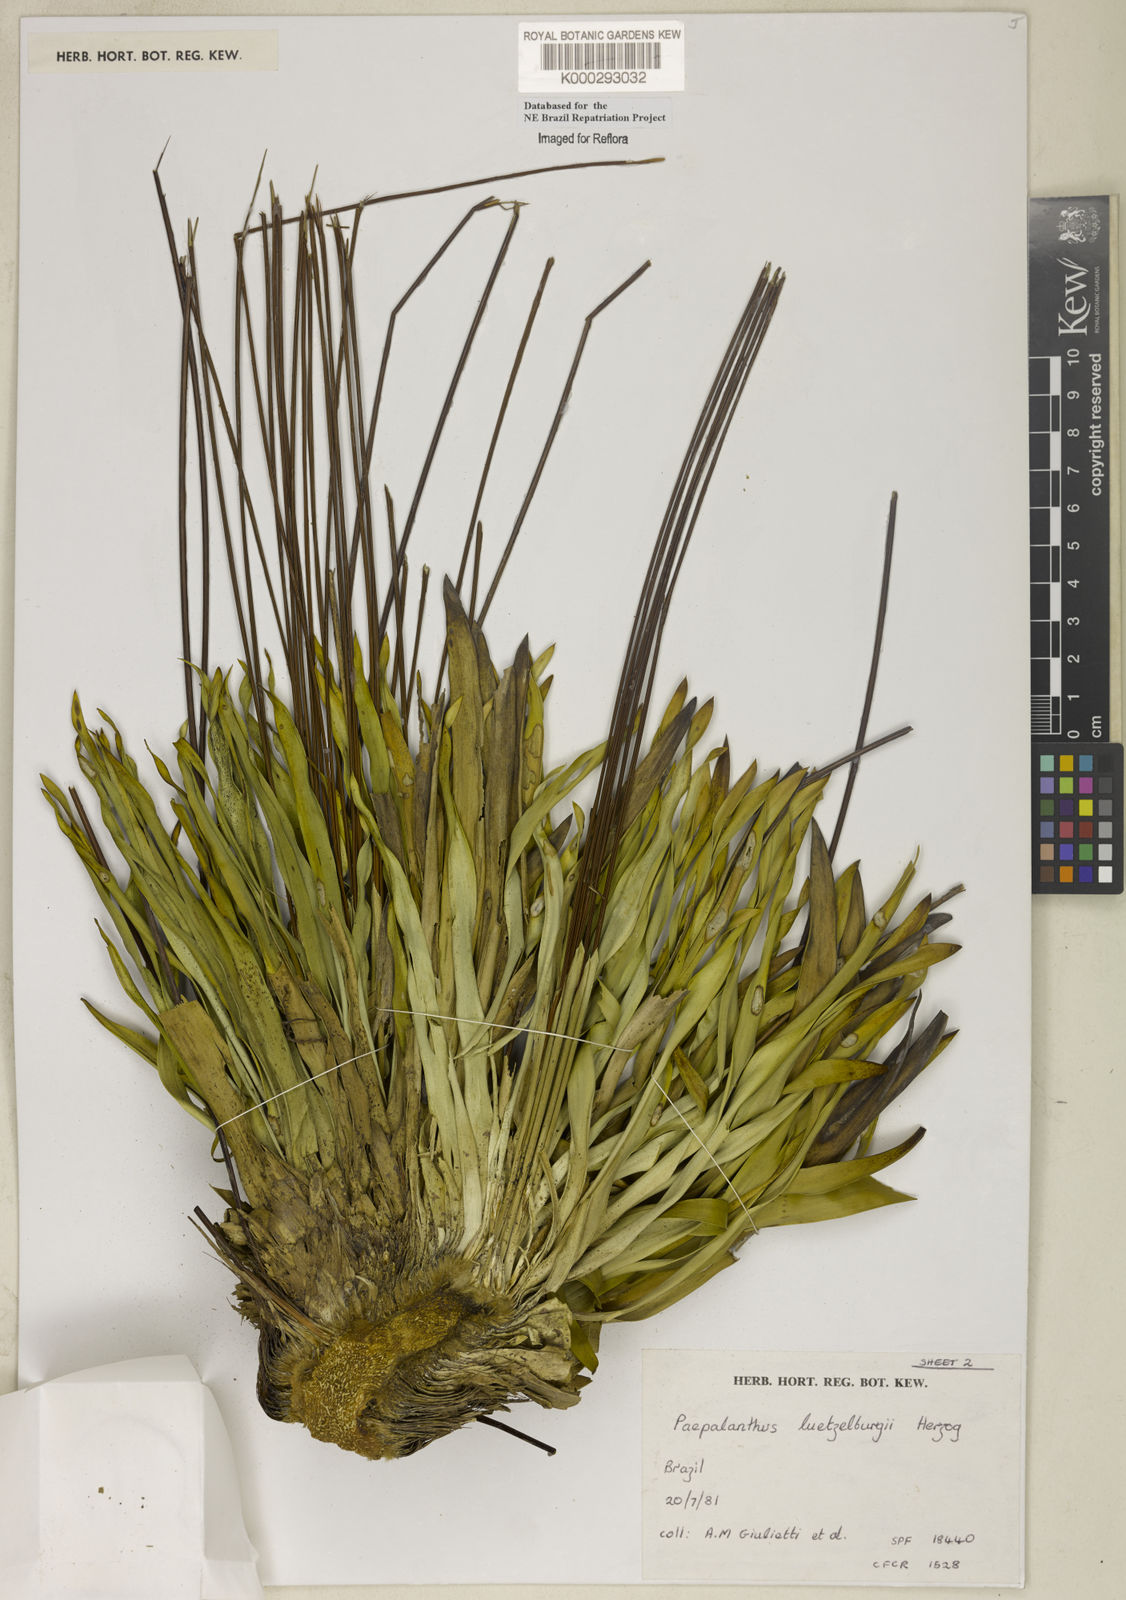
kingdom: Plantae
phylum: Tracheophyta
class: Liliopsida
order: Poales
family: Eriocaulaceae
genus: Paepalanthus
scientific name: Paepalanthus luetzelburgii
